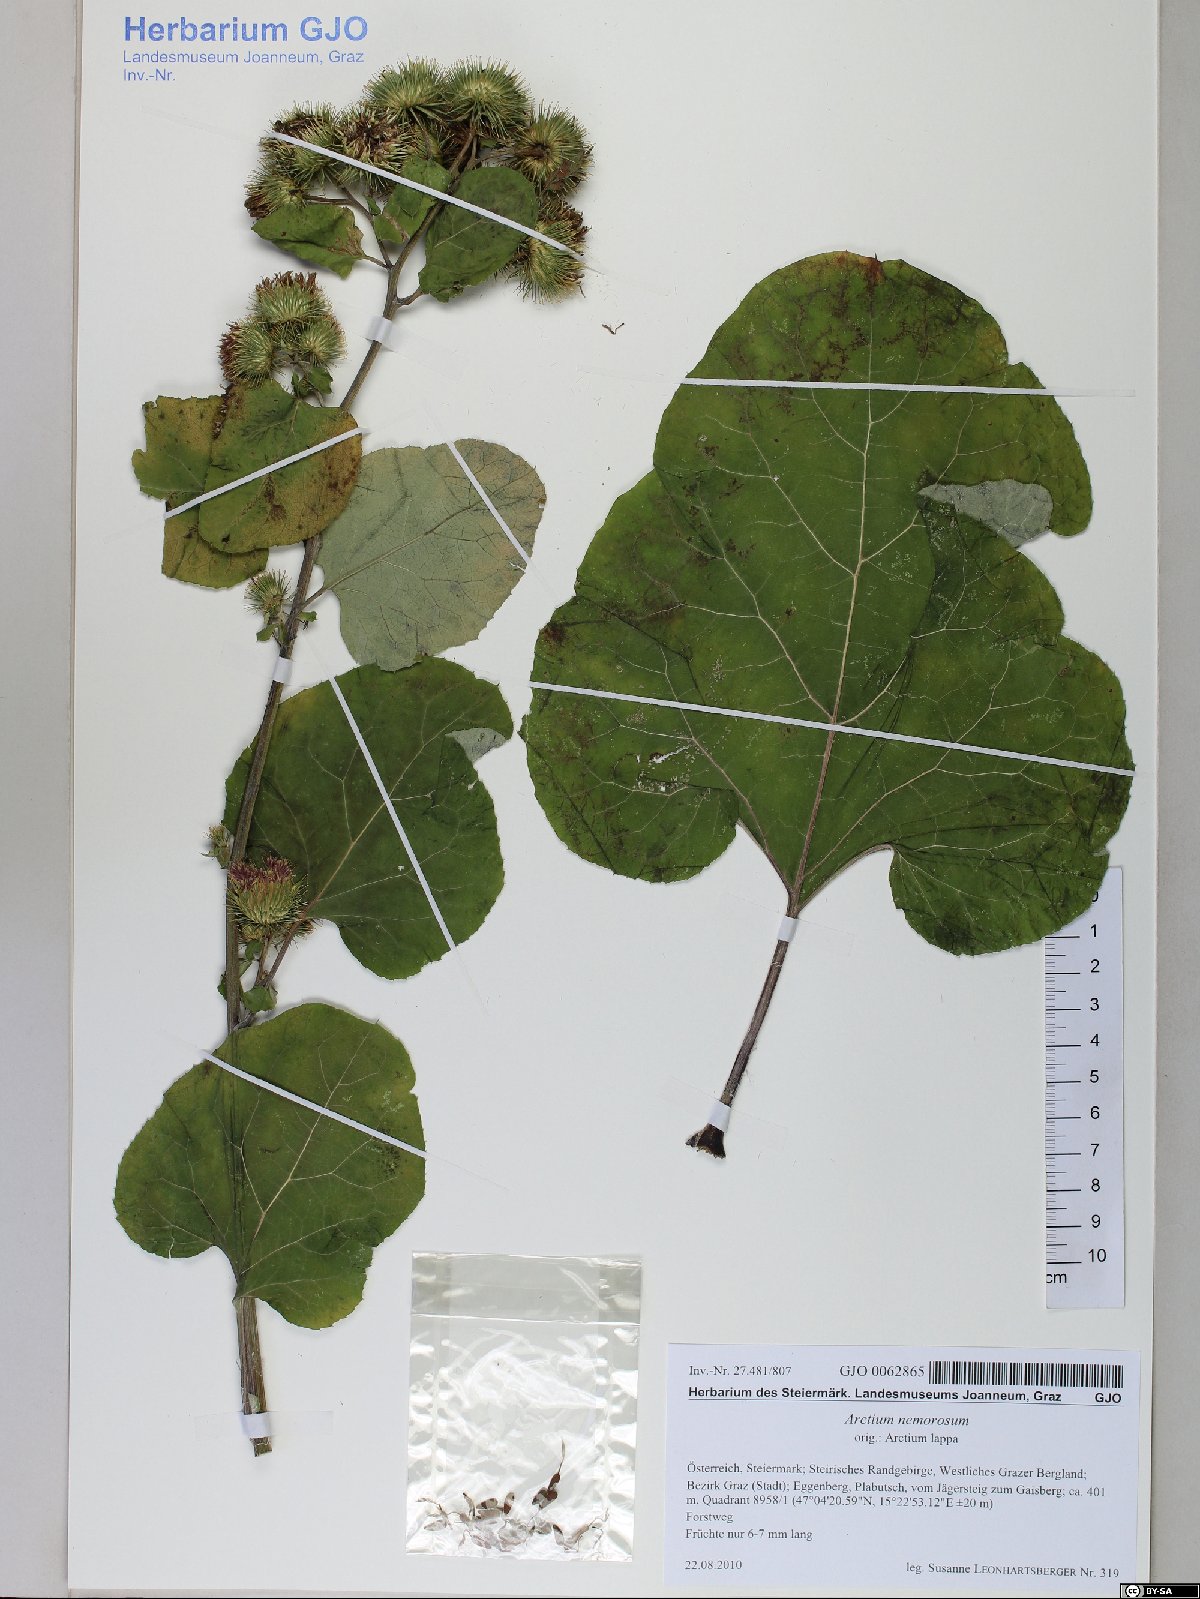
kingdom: Plantae
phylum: Tracheophyta
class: Magnoliopsida
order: Asterales
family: Asteraceae
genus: Arctium
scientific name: Arctium nemorosum
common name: Wood burdock
